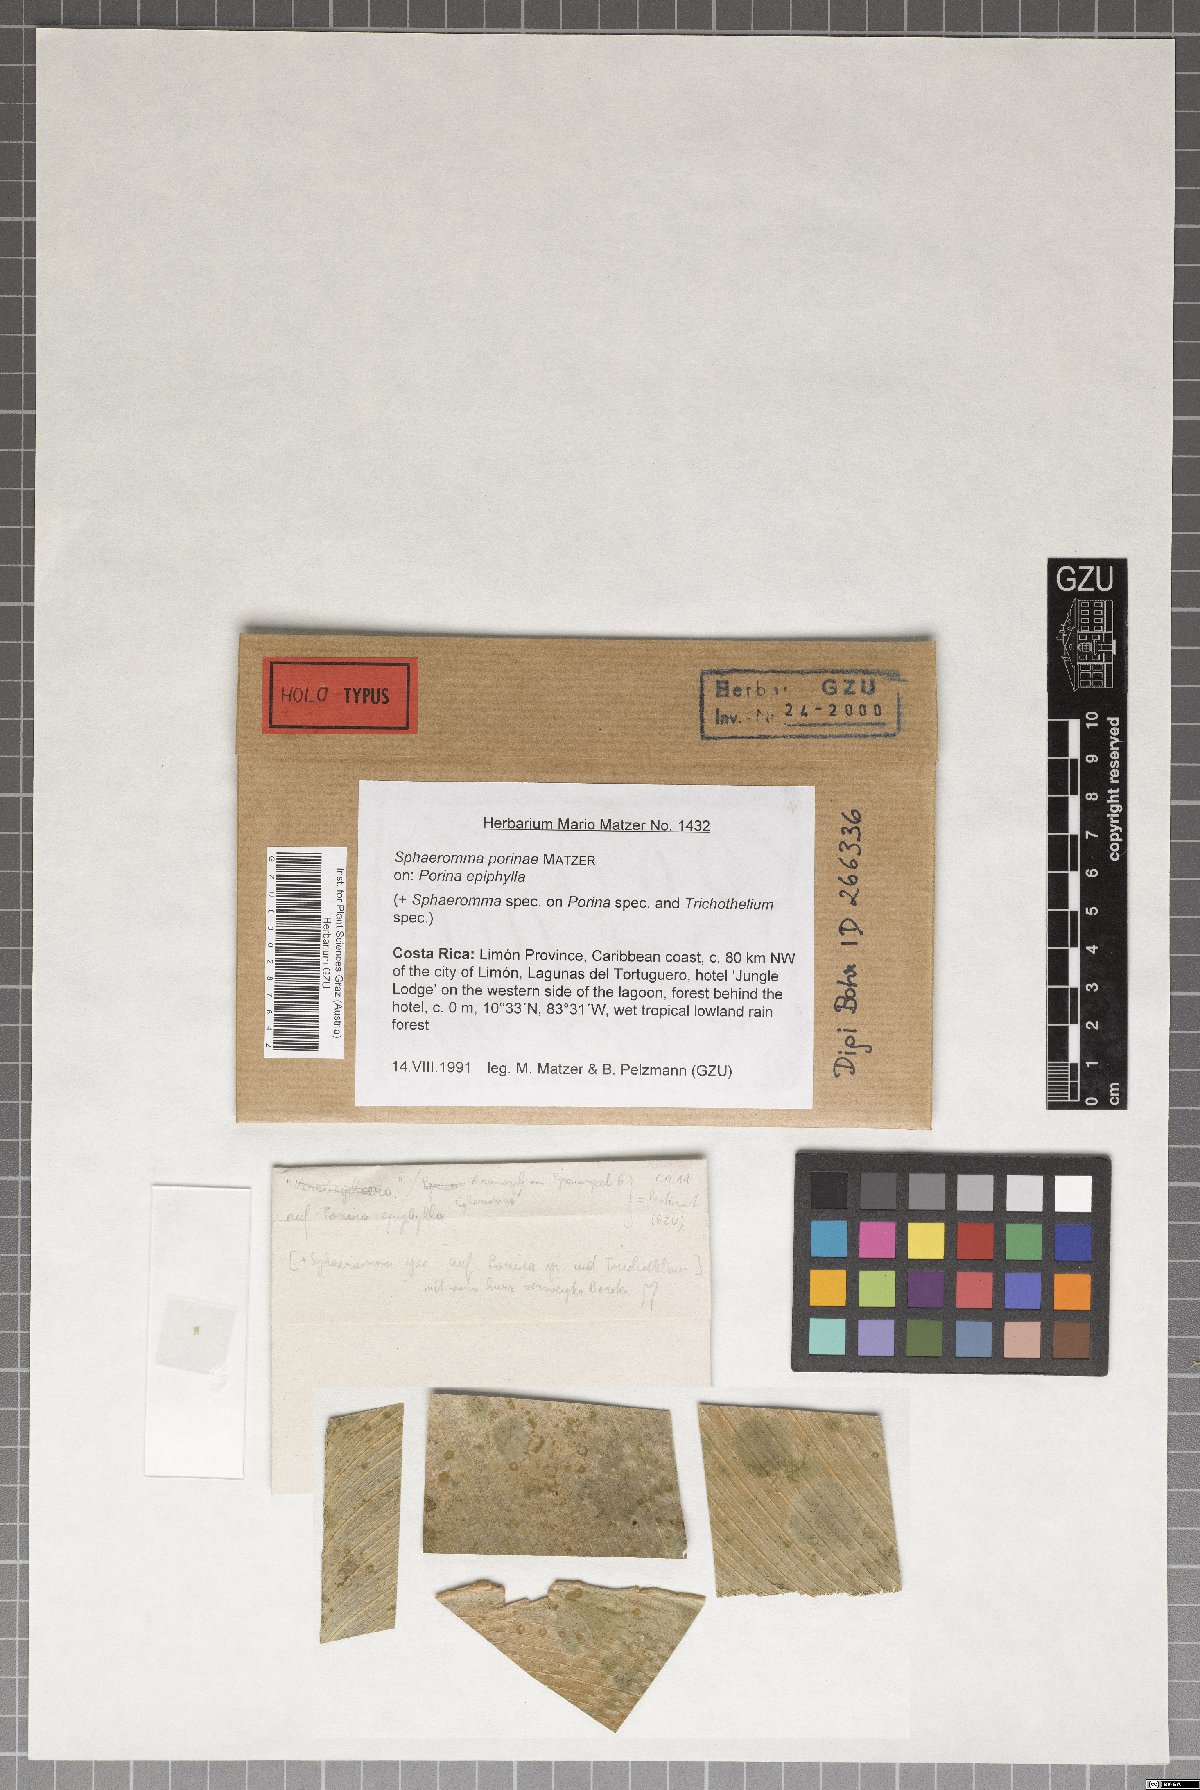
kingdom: Fungi
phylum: Ascomycota
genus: Sphaeromma
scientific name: Sphaeromma porinae
